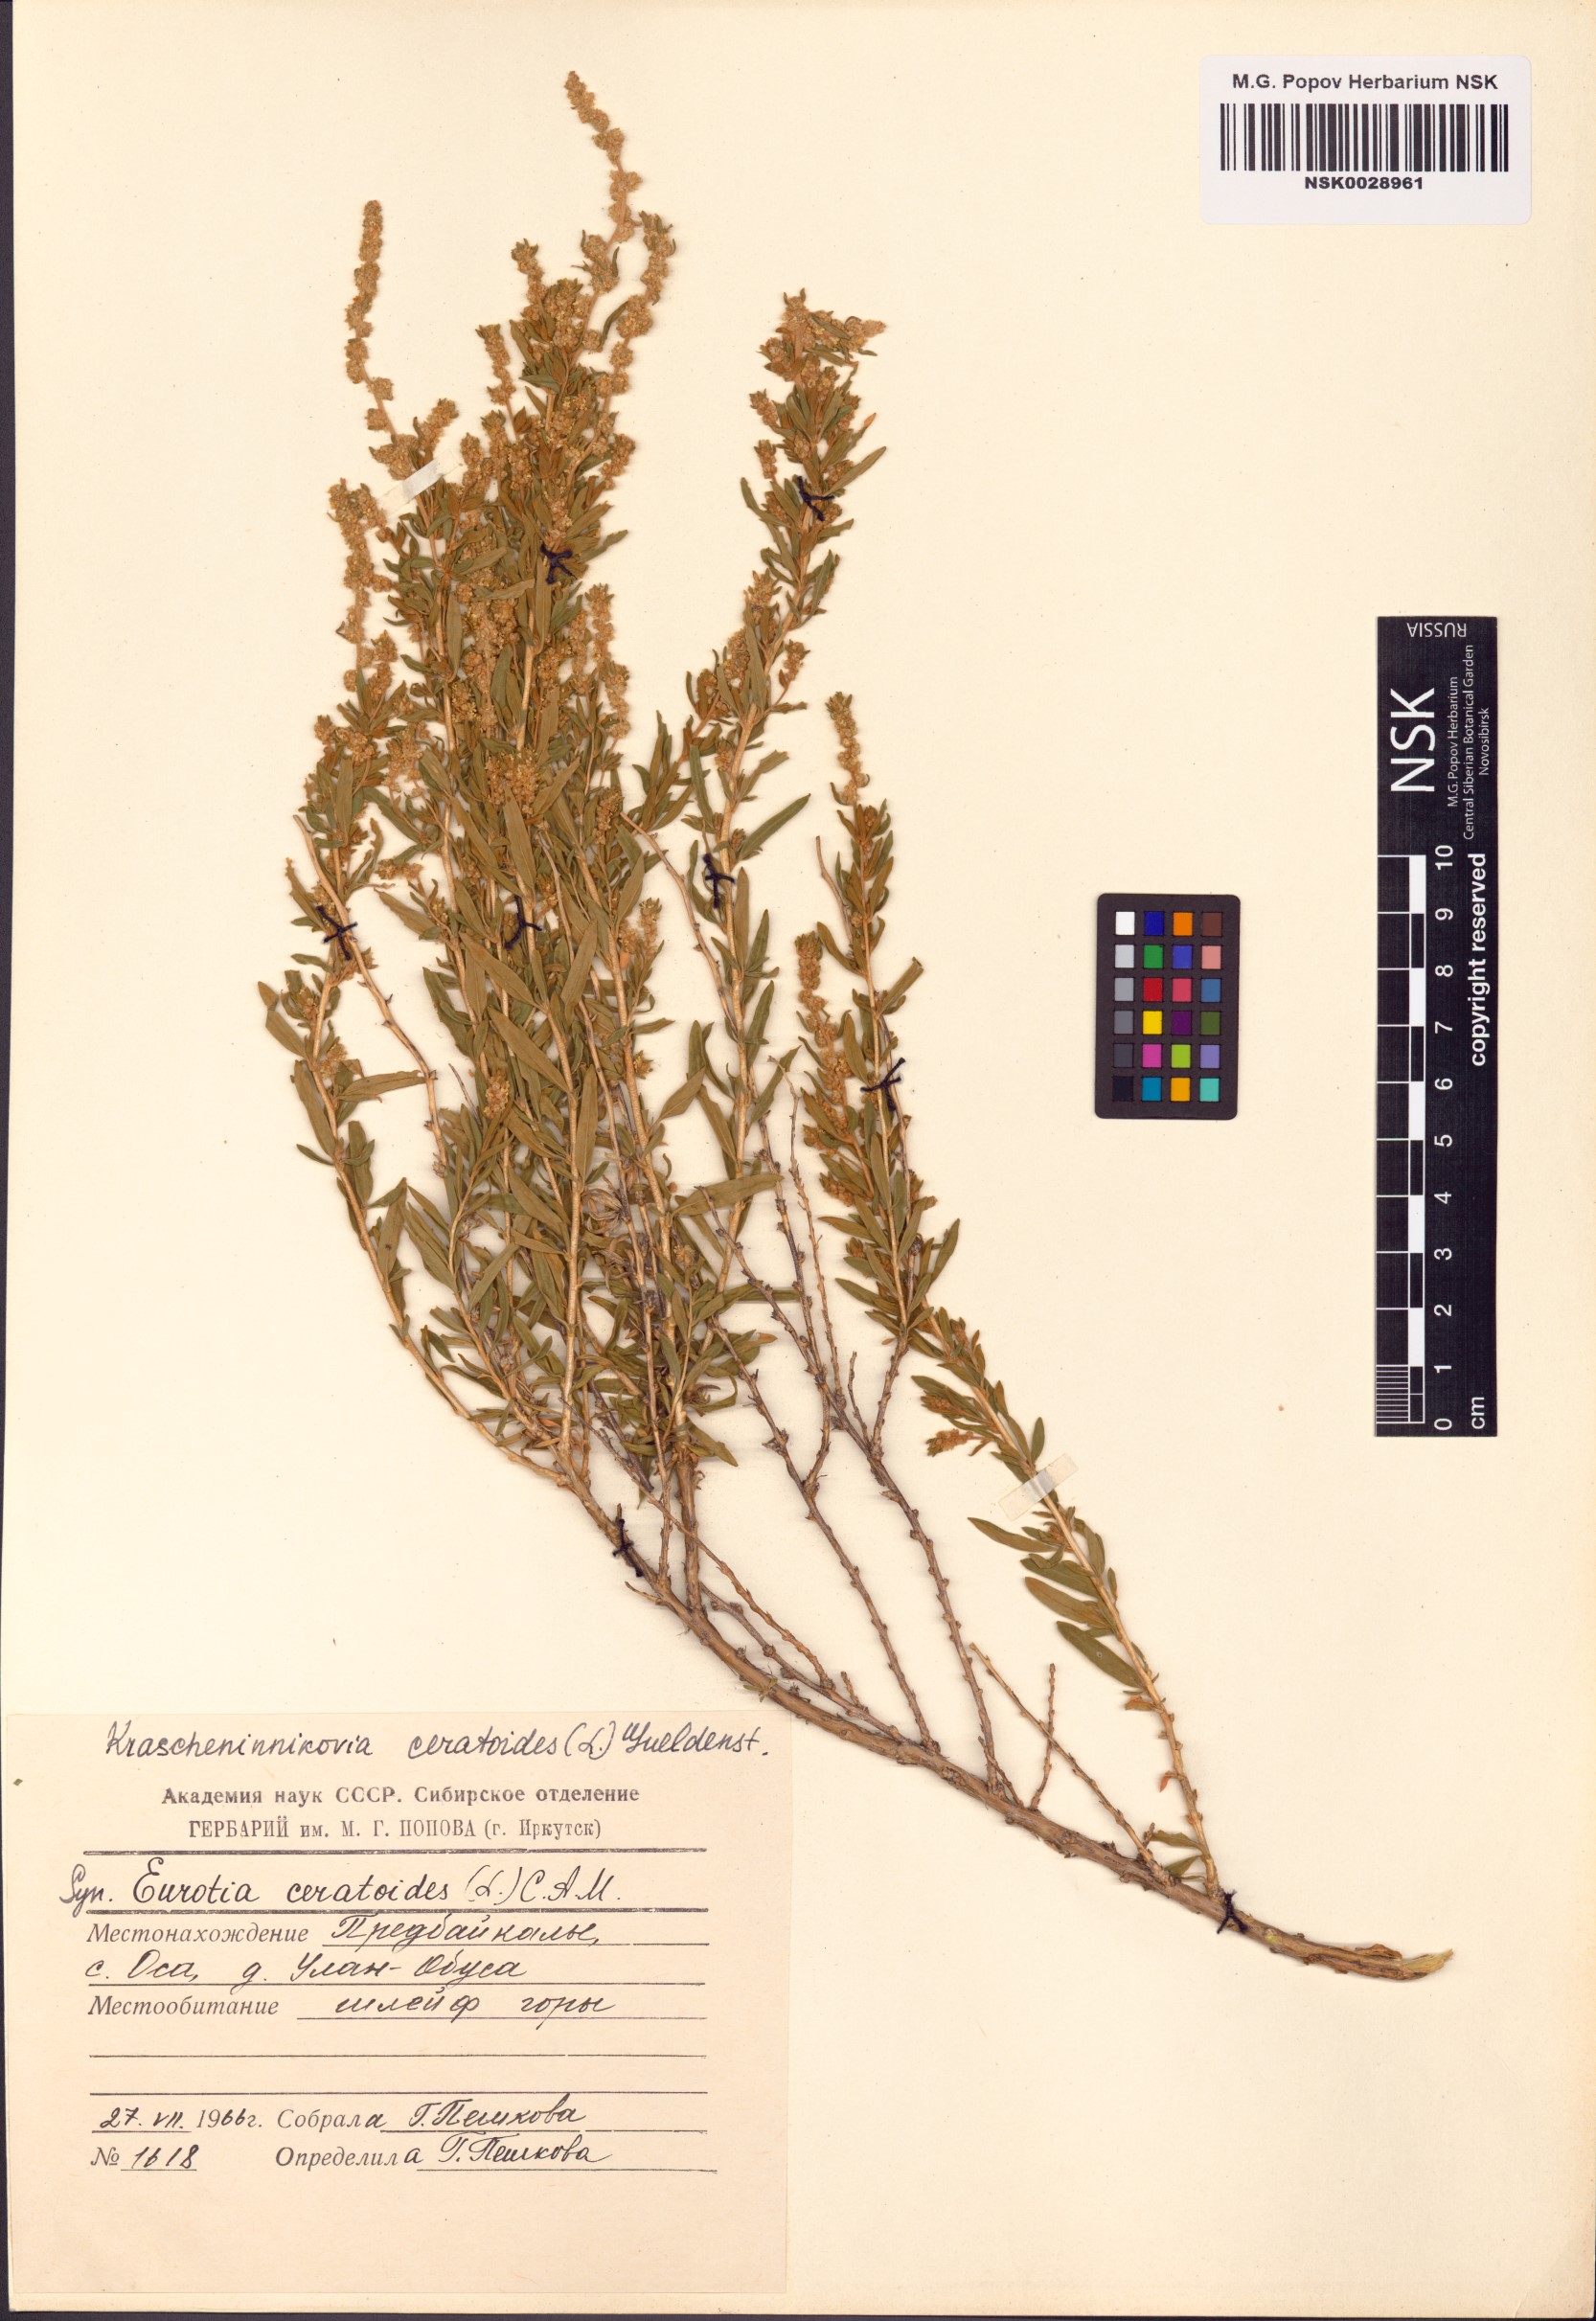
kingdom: Plantae
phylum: Tracheophyta
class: Magnoliopsida
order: Caryophyllales
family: Amaranthaceae
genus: Krascheninnikovia
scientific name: Krascheninnikovia ceratoides
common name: Pamirian winterfat
